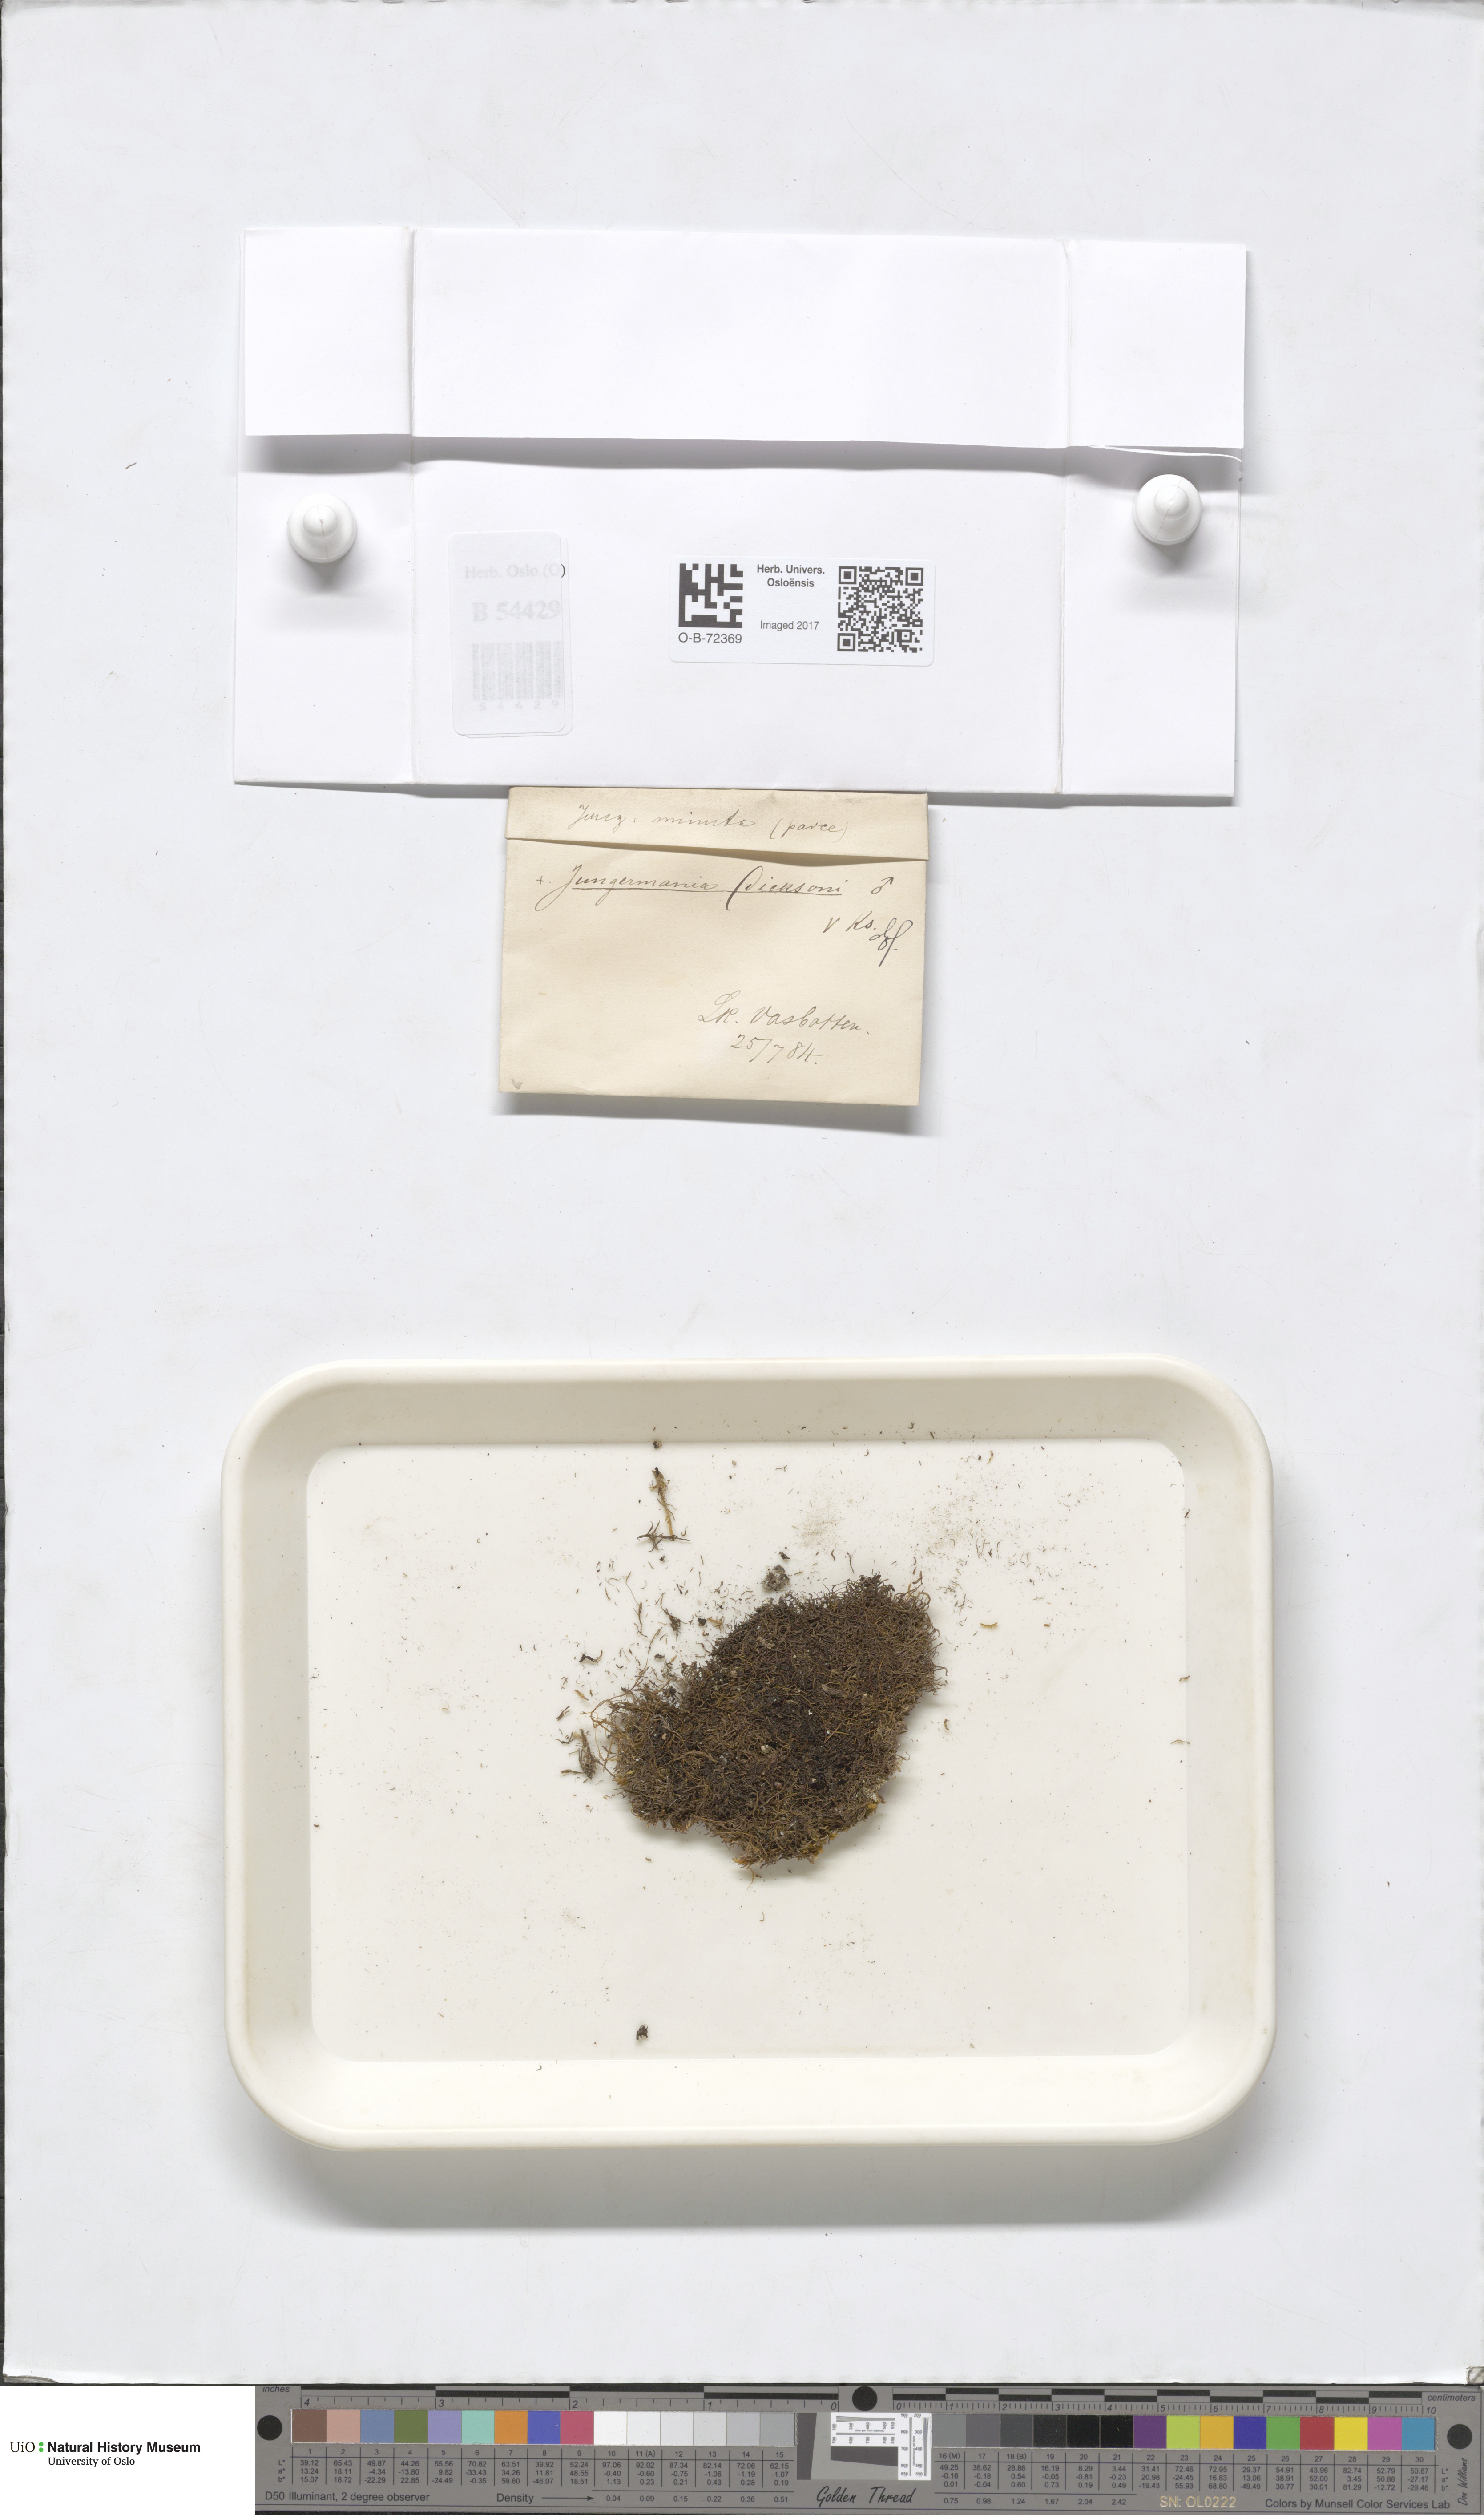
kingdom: Plantae
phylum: Marchantiophyta
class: Jungermanniopsida
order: Jungermanniales
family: Scapaniaceae
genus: Douinia
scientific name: Douinia ovata
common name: Waxy earwort
